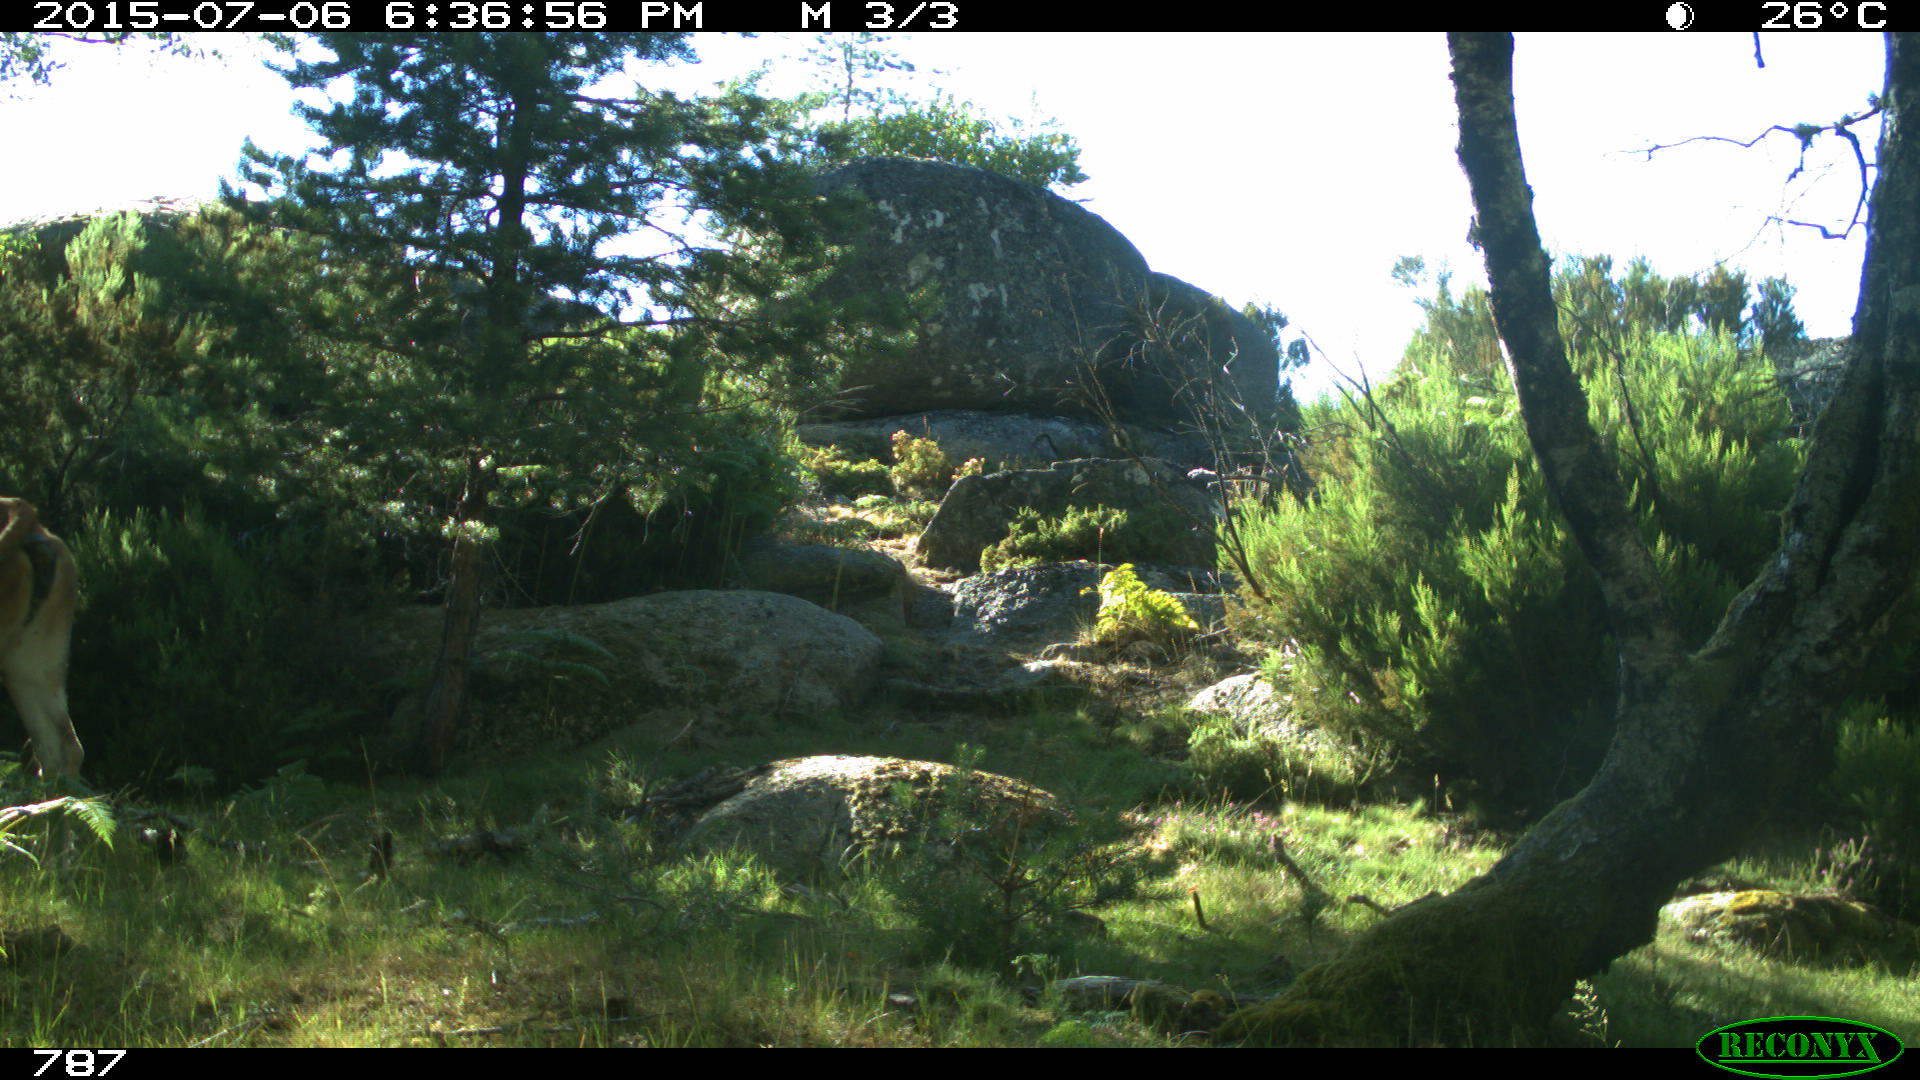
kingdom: Animalia
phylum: Chordata
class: Mammalia
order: Artiodactyla
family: Bovidae
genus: Bos
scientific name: Bos taurus
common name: Domesticated cattle
